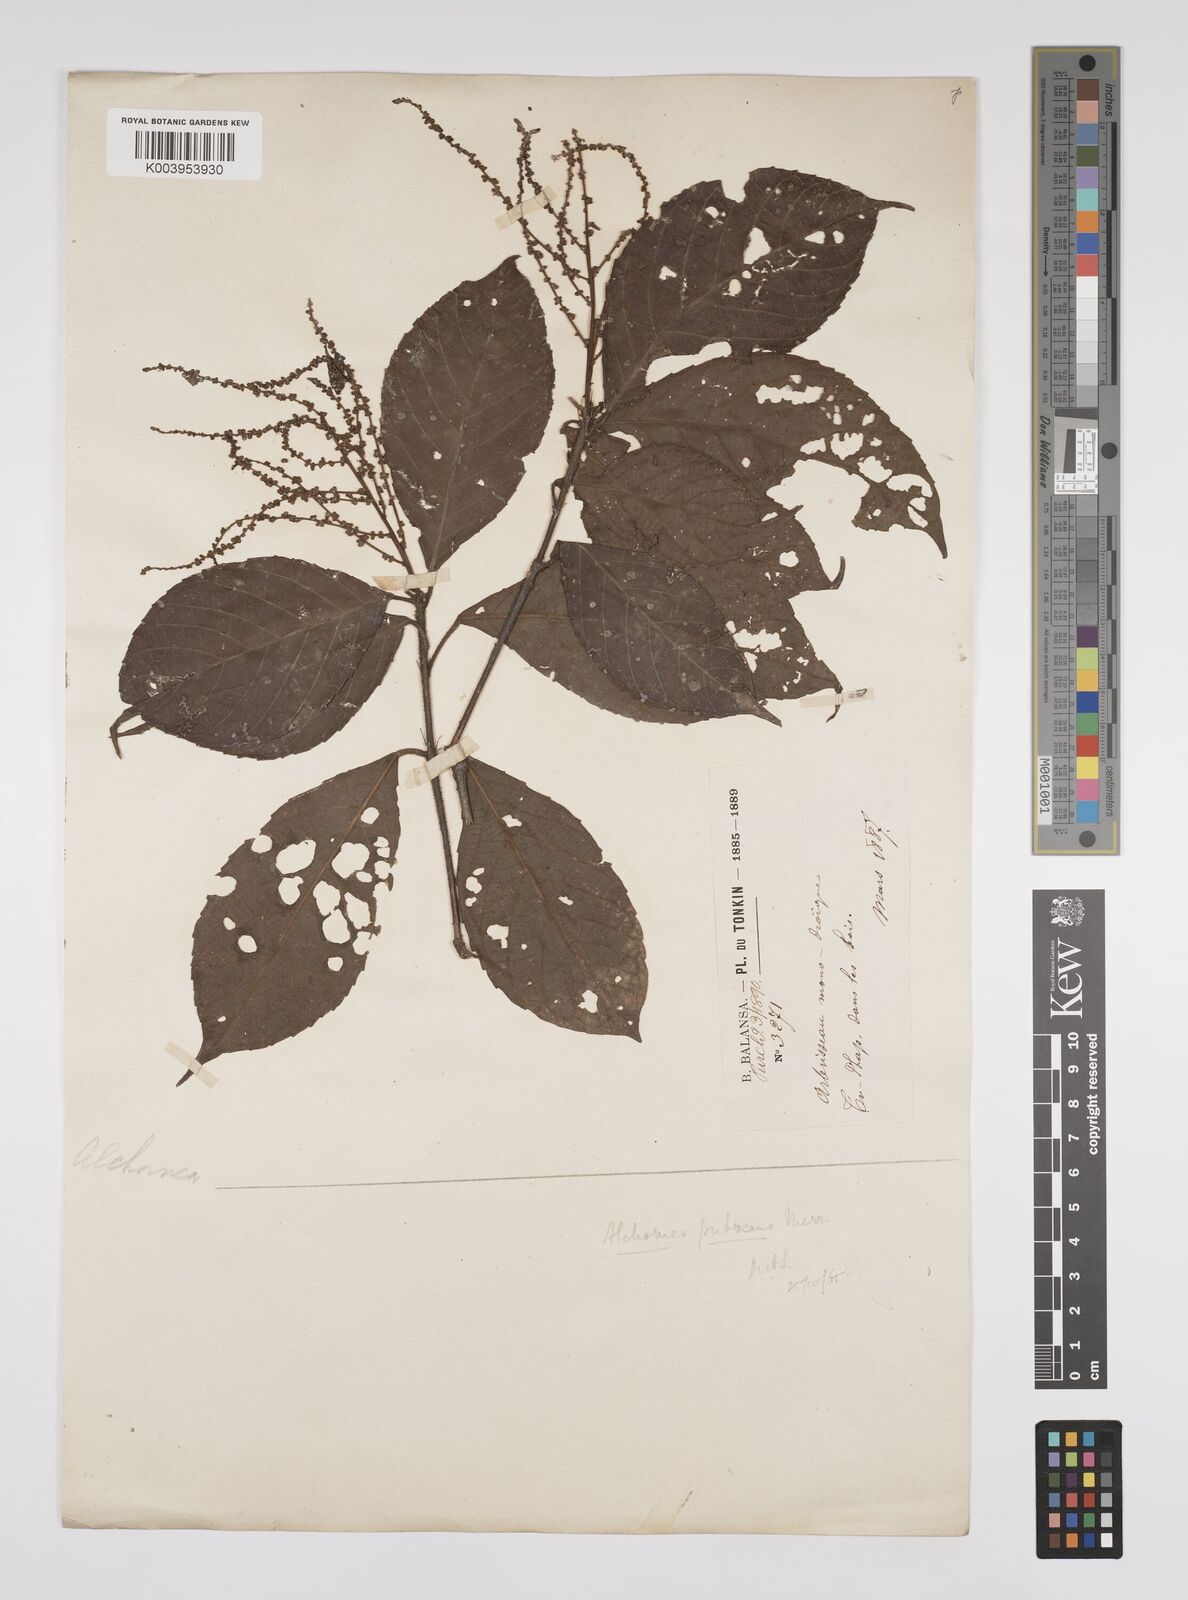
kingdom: Plantae
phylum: Tracheophyta
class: Magnoliopsida
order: Malpighiales
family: Euphorbiaceae
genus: Alchornea
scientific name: Alchornea rugosa
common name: Alchorntree
